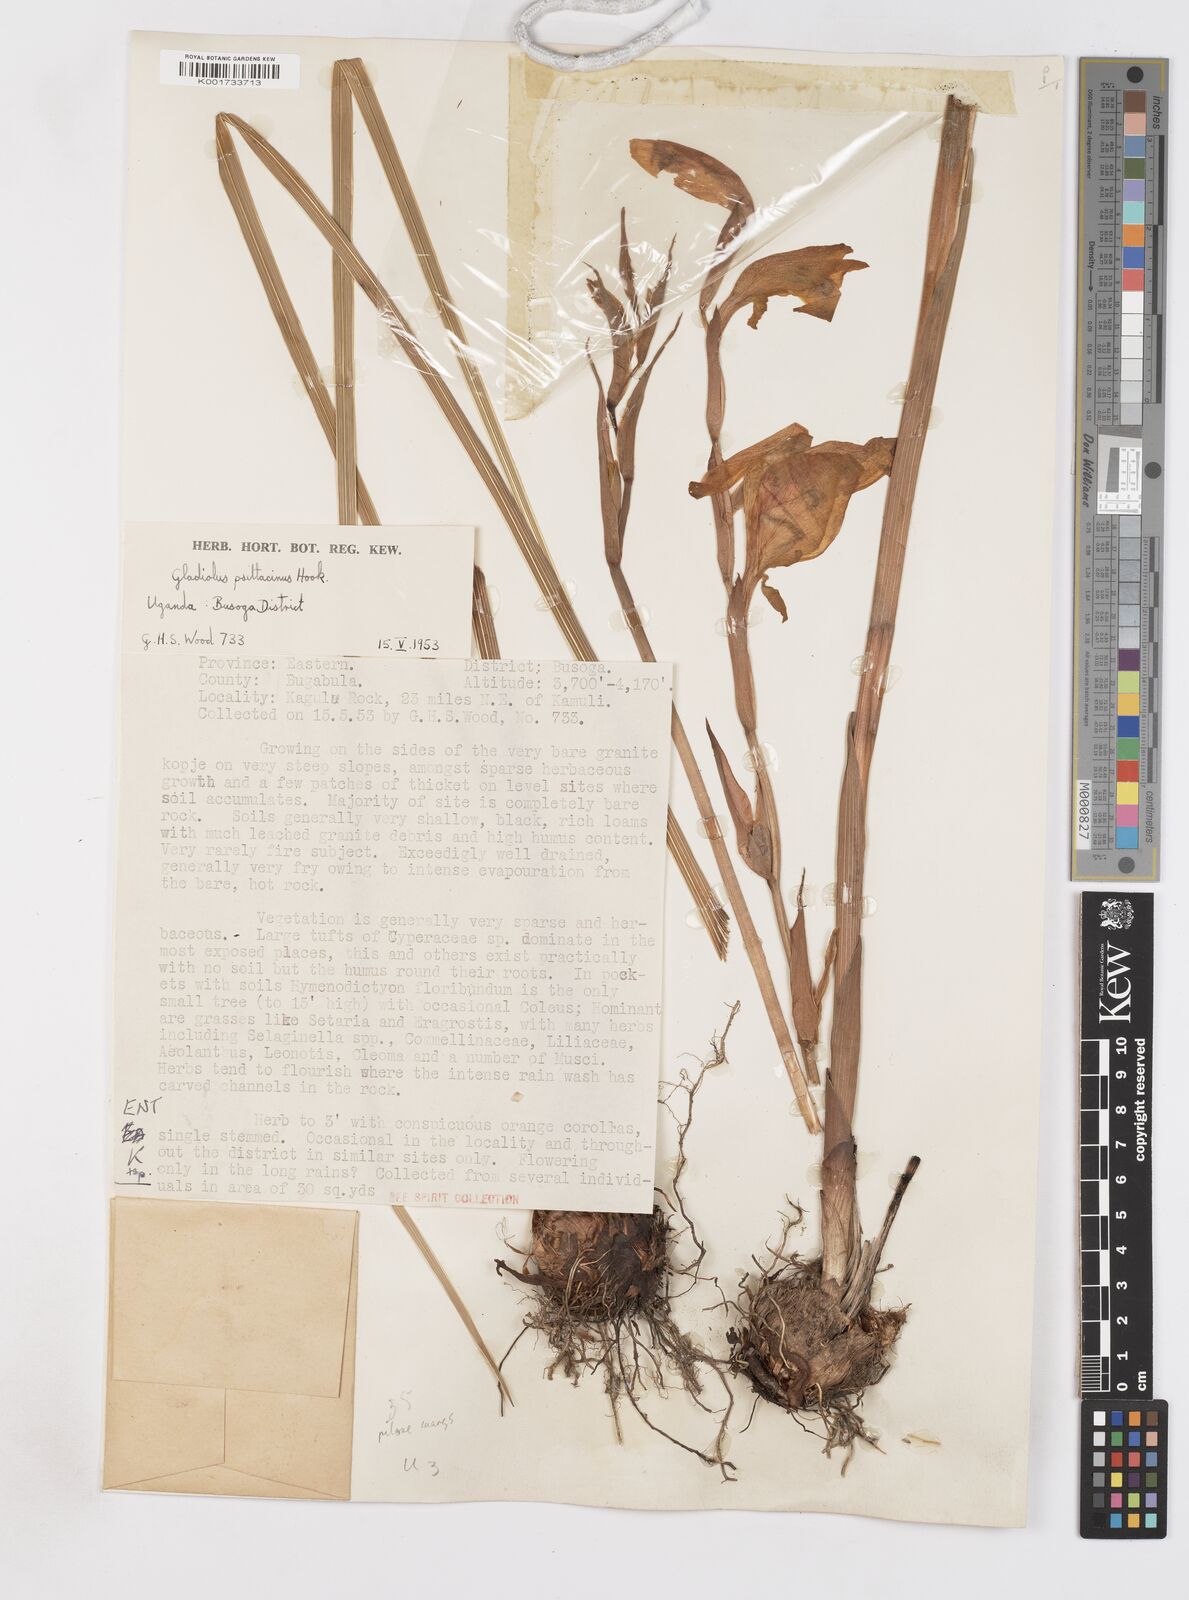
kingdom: Plantae
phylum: Tracheophyta
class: Liliopsida
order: Asparagales
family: Iridaceae
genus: Gladiolus
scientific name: Gladiolus dalenii
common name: Cornflag
